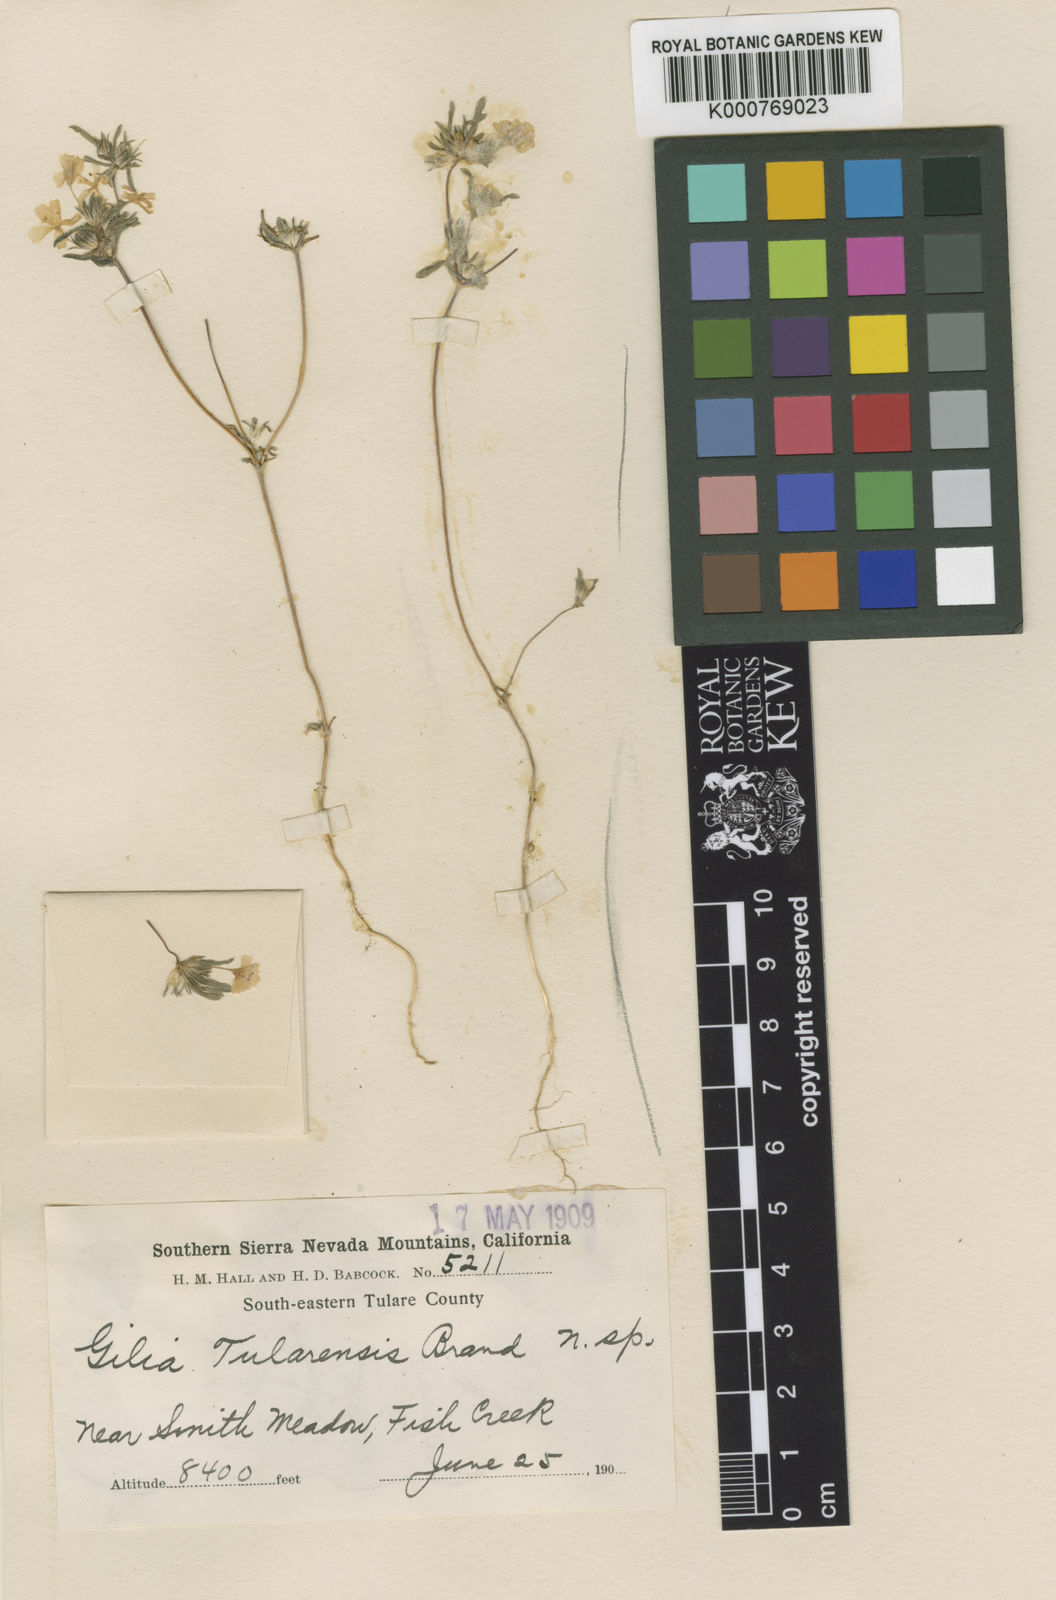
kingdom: Plantae
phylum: Tracheophyta
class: Magnoliopsida
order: Ericales
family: Polemoniaceae
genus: Linanthus
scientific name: Linanthus
